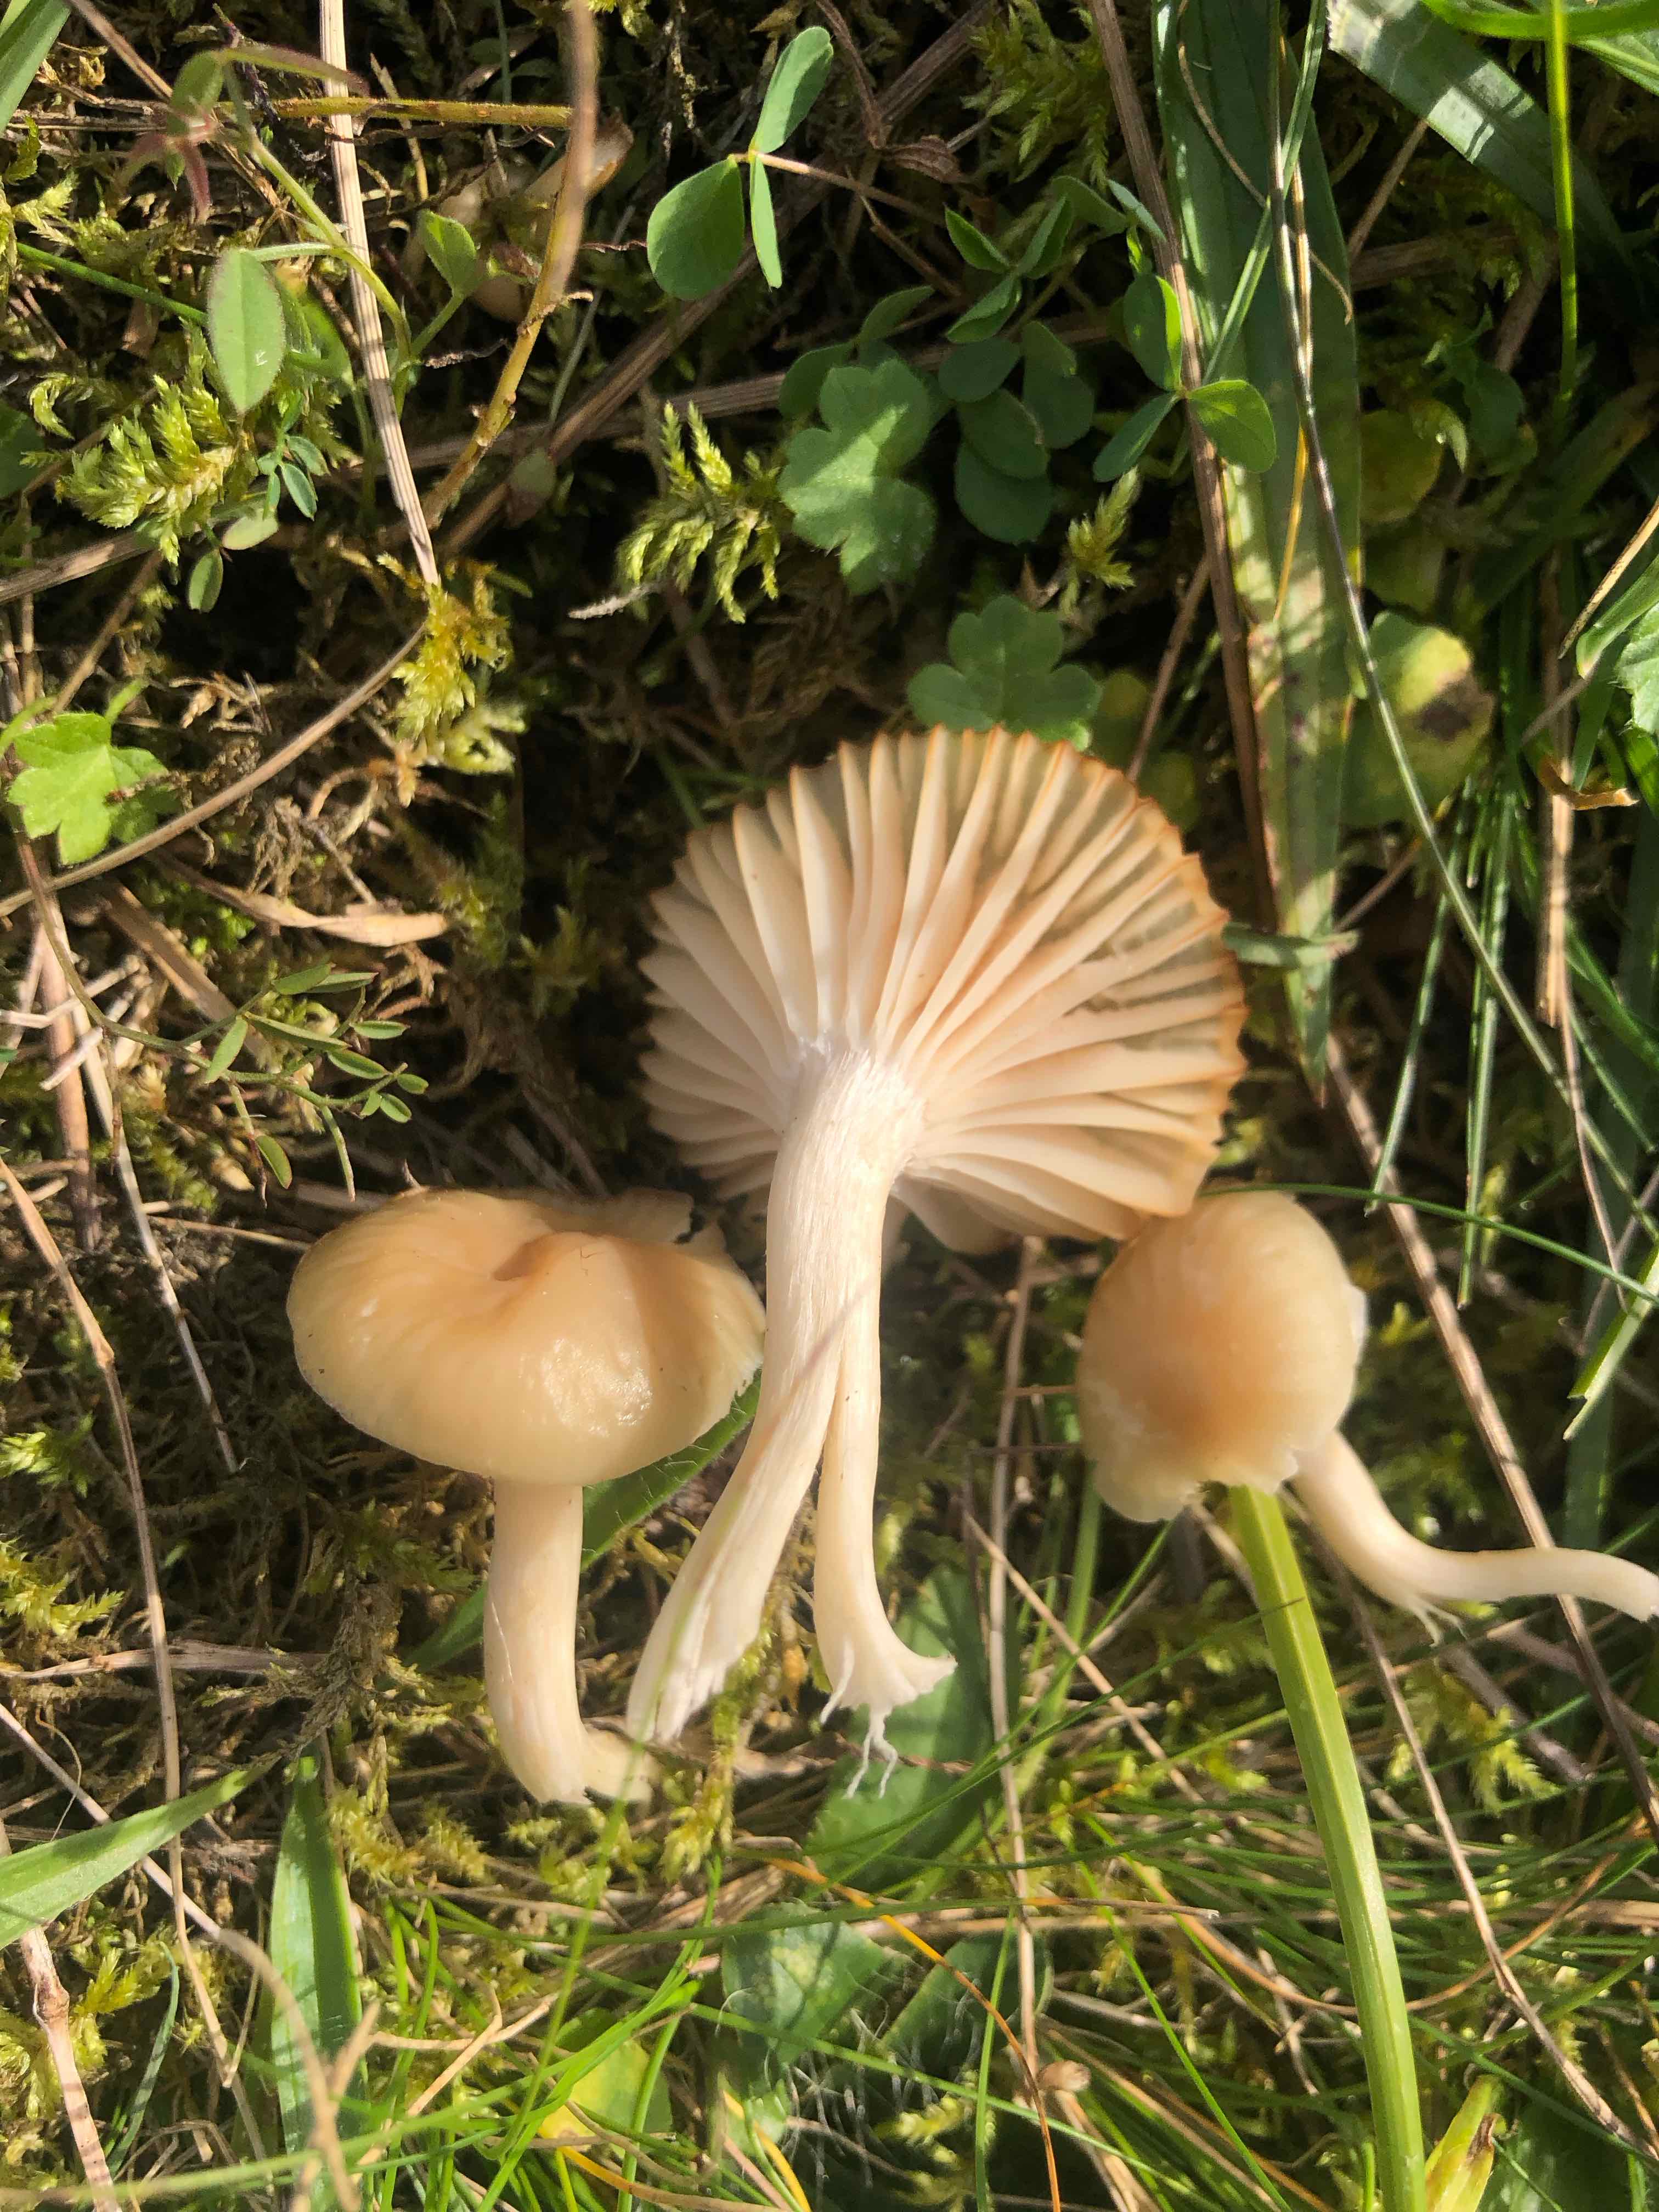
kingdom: Fungi
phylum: Basidiomycota
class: Agaricomycetes
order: Agaricales
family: Hygrophoraceae
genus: Cuphophyllus
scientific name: Cuphophyllus virgineus
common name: isabella-vokshat
